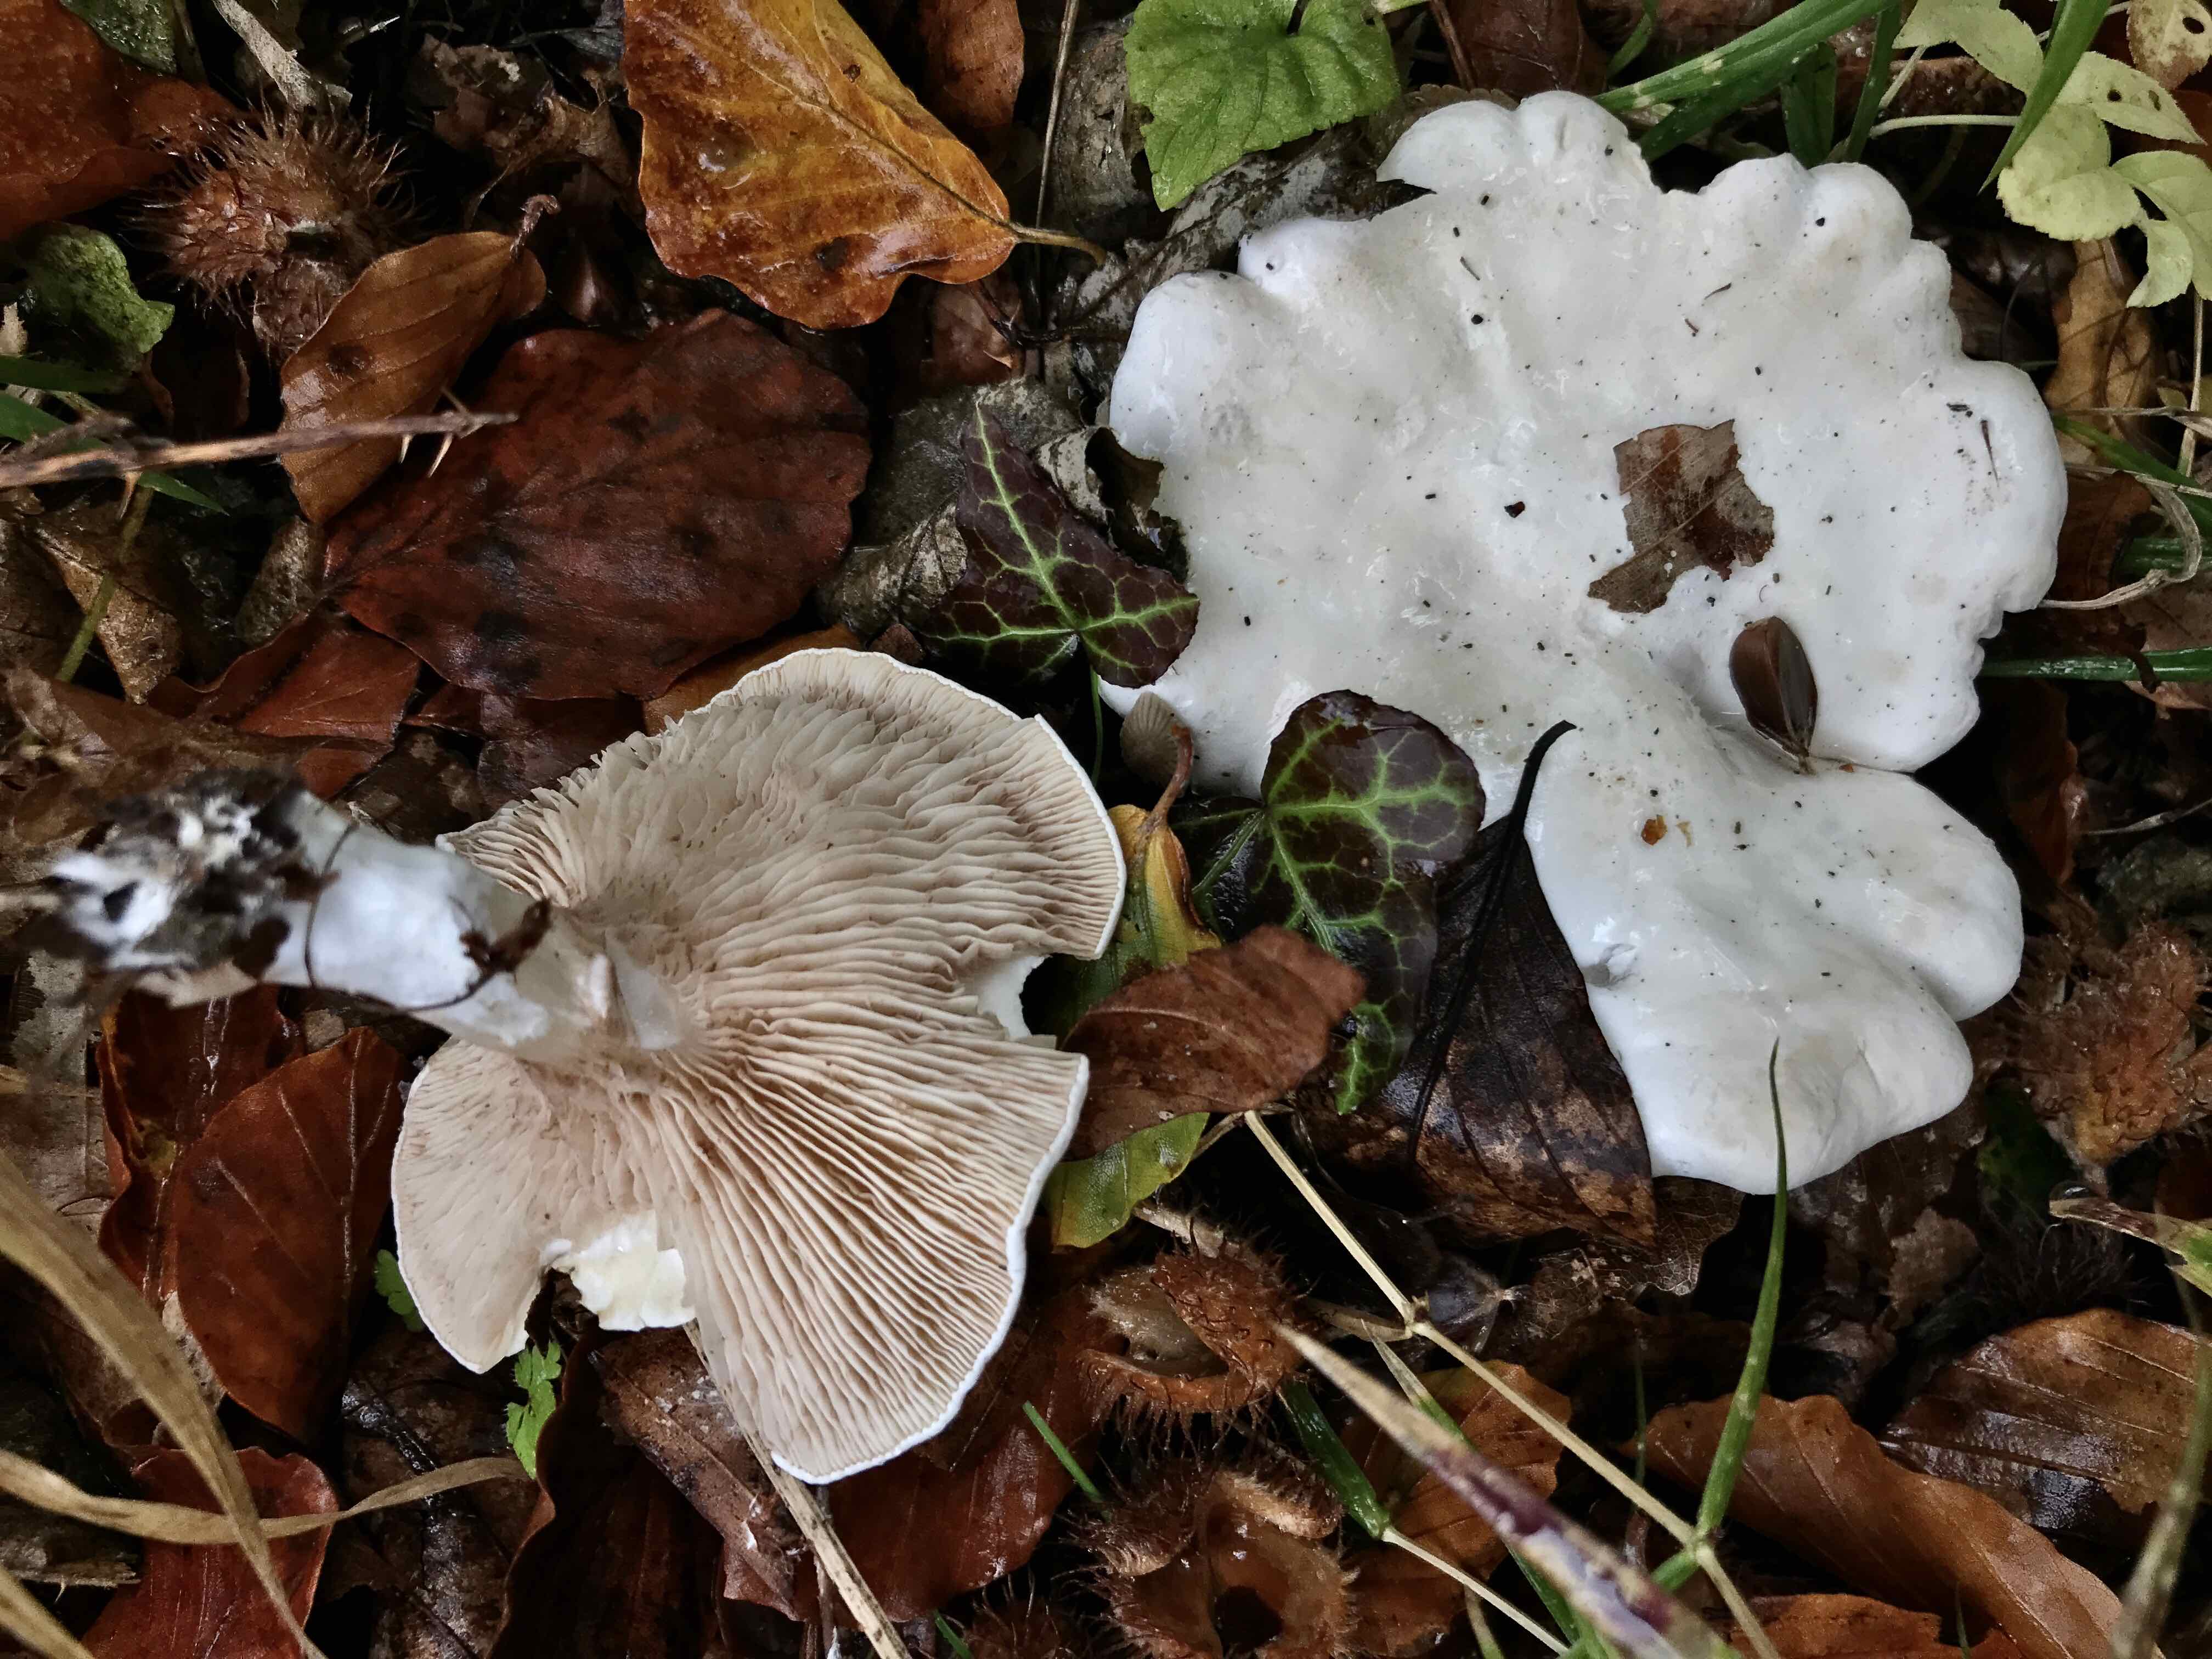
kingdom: Fungi
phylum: Basidiomycota
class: Agaricomycetes
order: Agaricales
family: Entolomataceae
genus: Clitopilus
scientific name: Clitopilus prunulus
